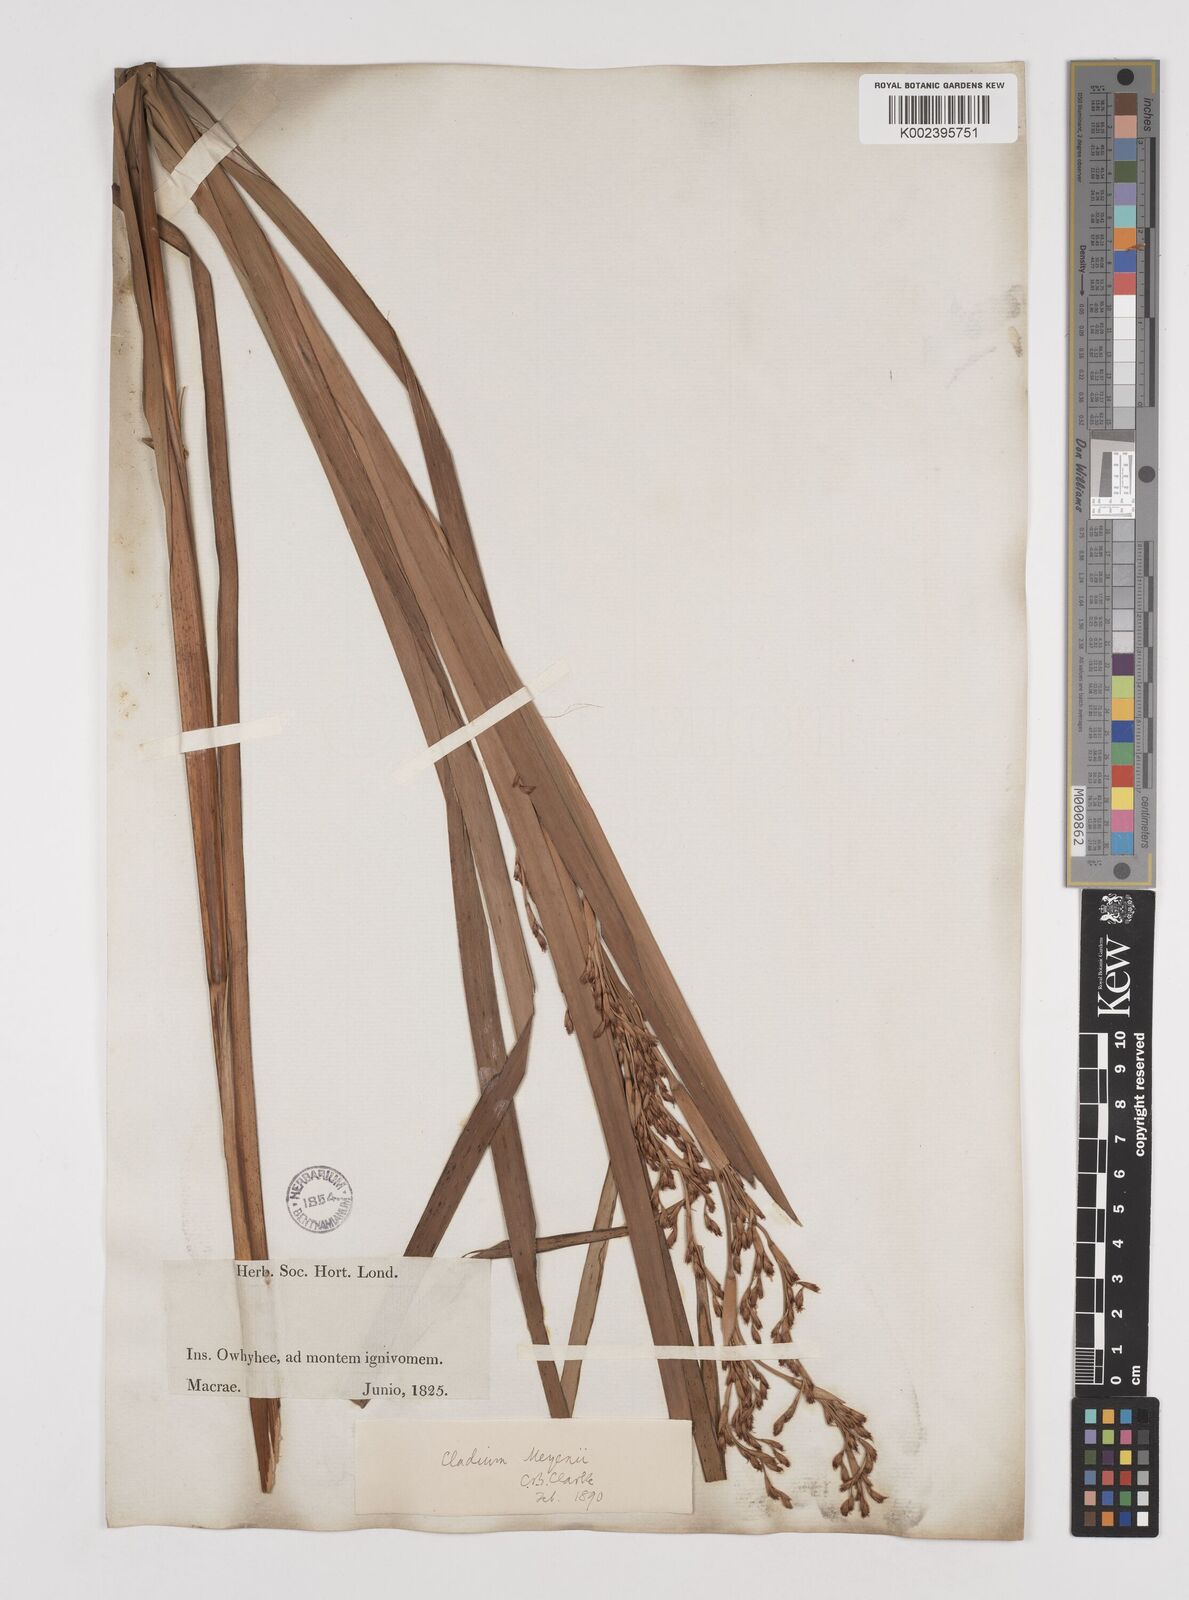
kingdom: Plantae
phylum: Tracheophyta
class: Liliopsida
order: Poales
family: Cyperaceae
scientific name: Cyperaceae
